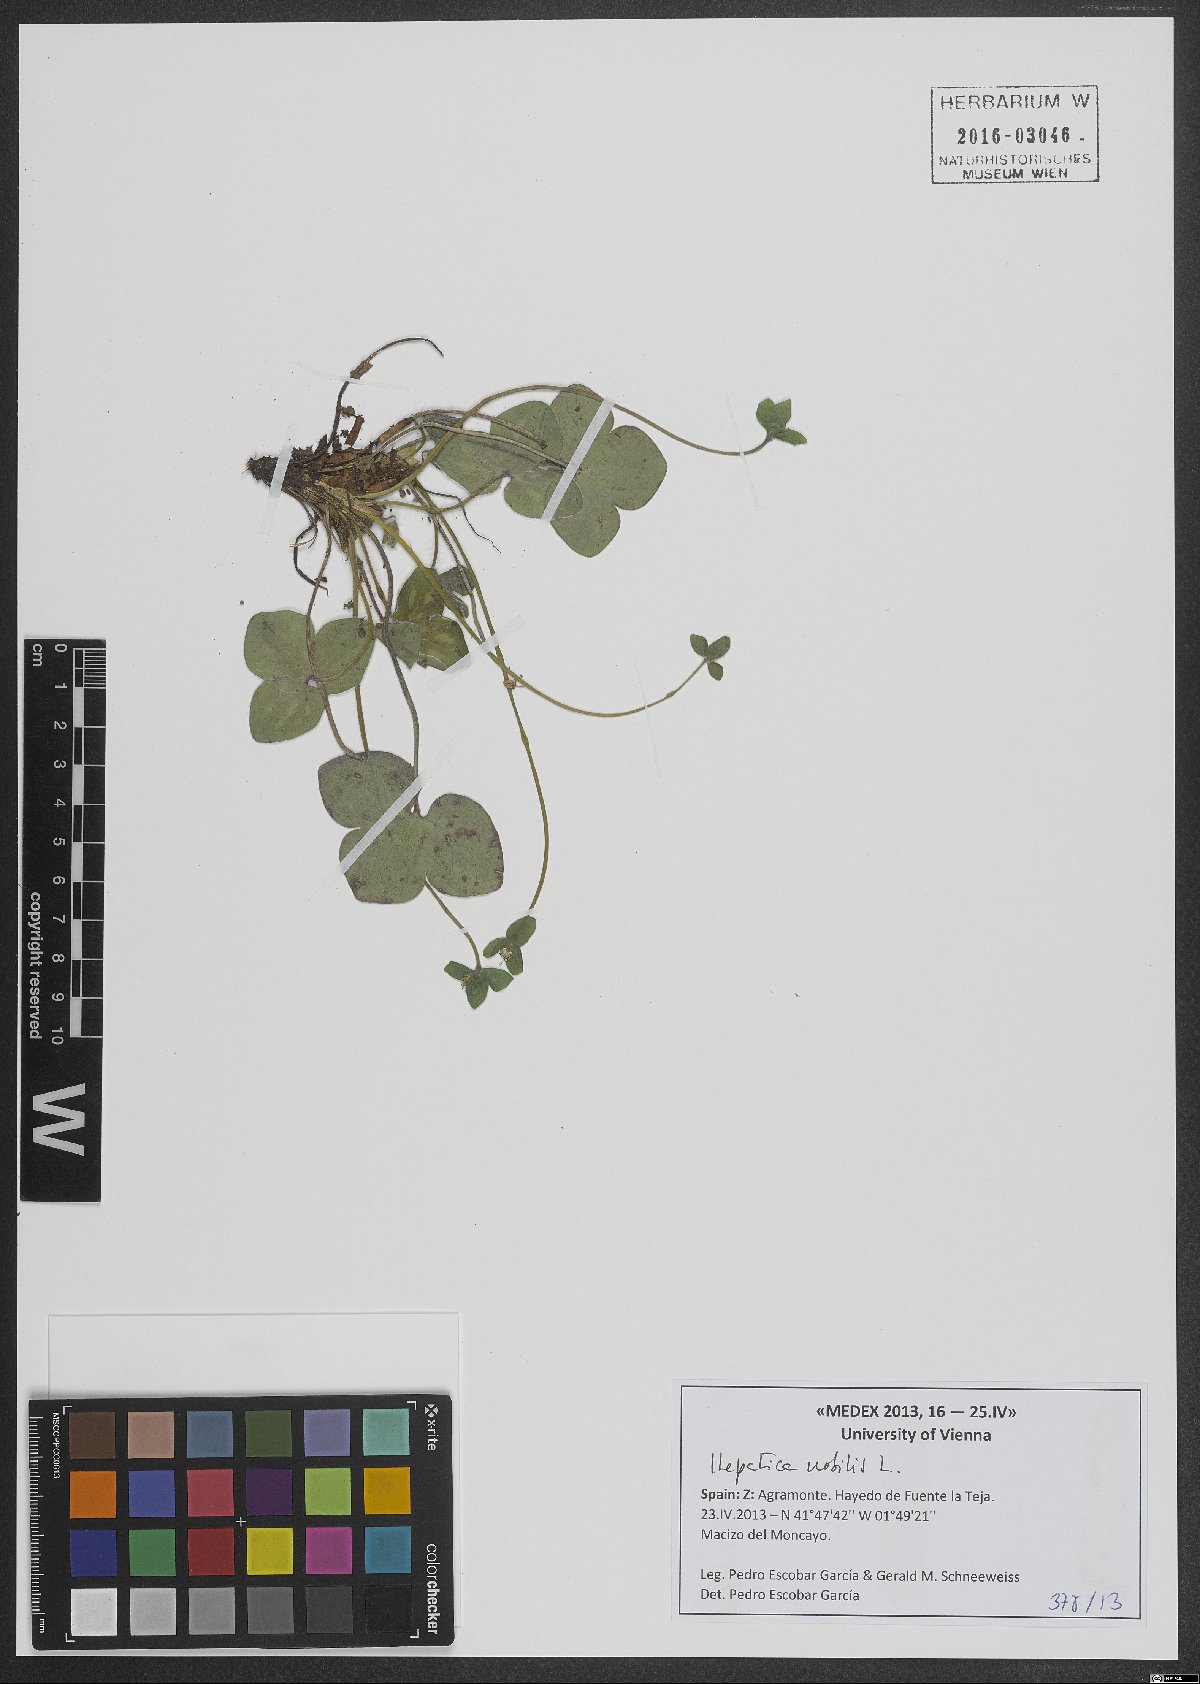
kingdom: Plantae
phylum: Tracheophyta
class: Magnoliopsida
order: Ranunculales
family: Ranunculaceae
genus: Hepatica
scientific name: Hepatica nobilis
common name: Liverleaf
